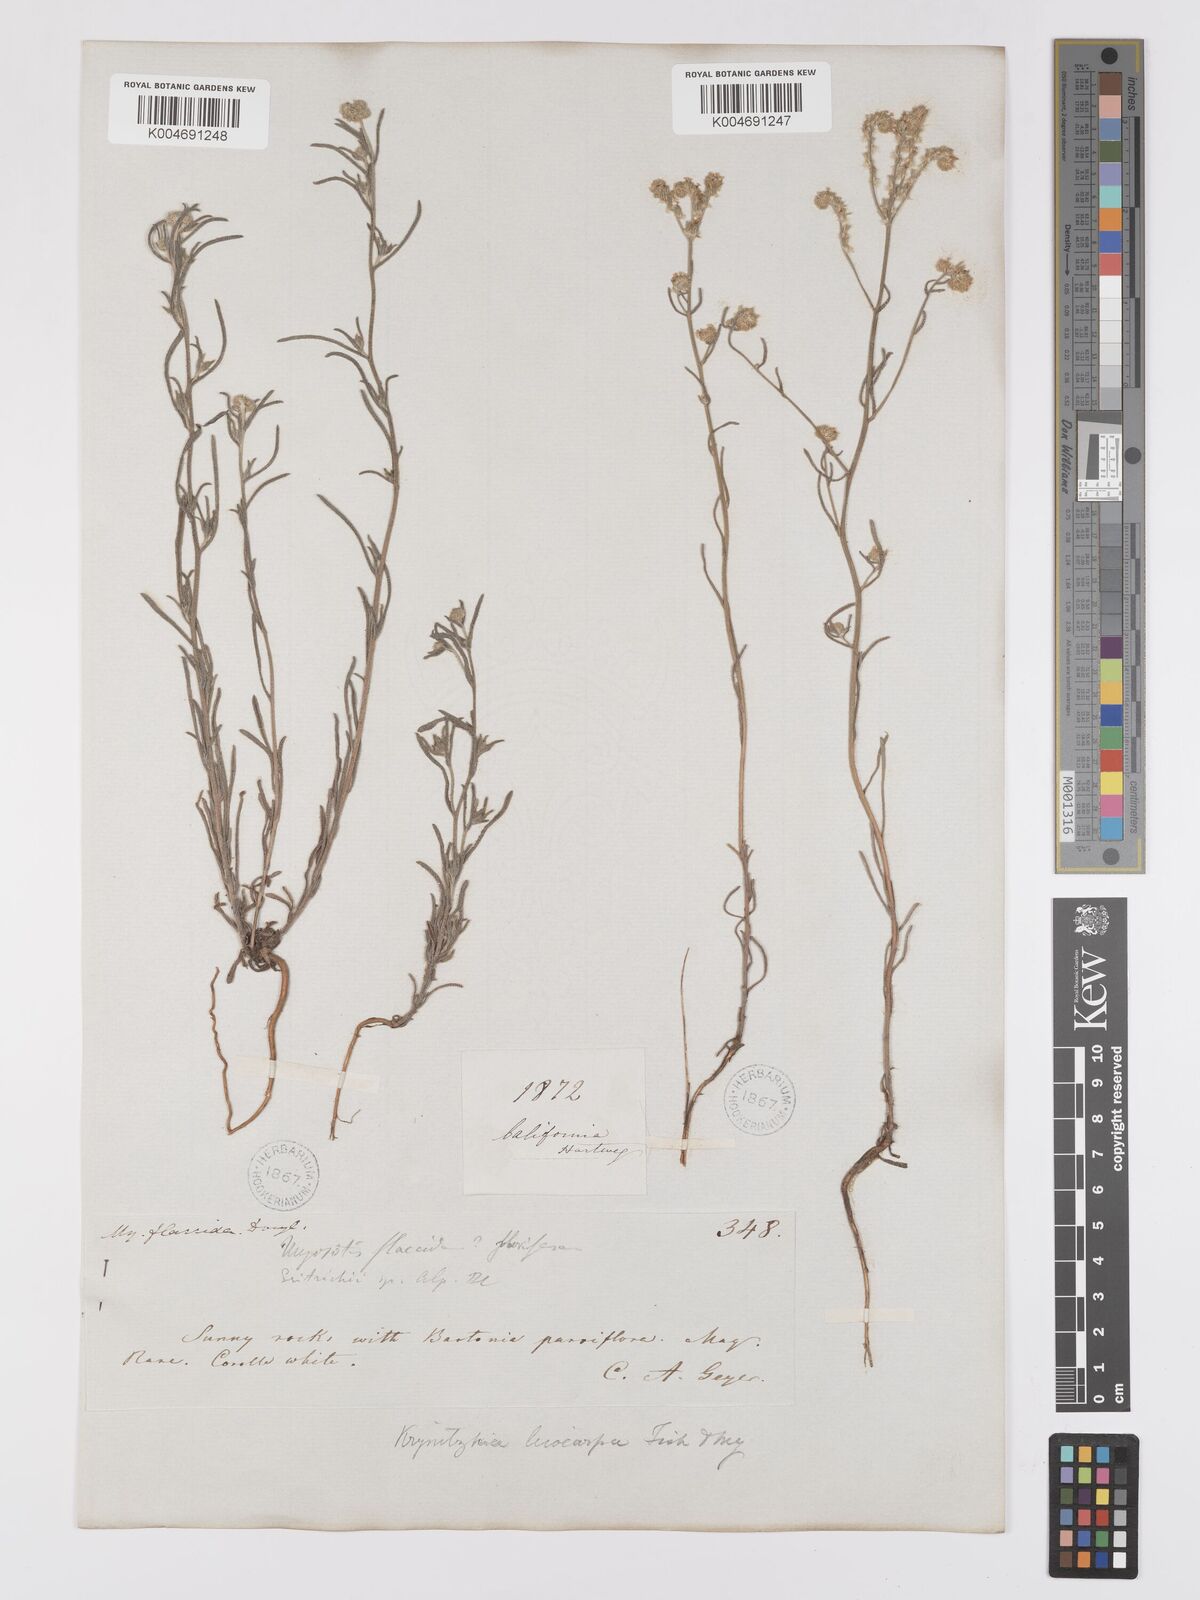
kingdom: Plantae
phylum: Tracheophyta
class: Magnoliopsida
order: Boraginales
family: Boraginaceae
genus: Cryptantha
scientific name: Cryptantha flaccida
